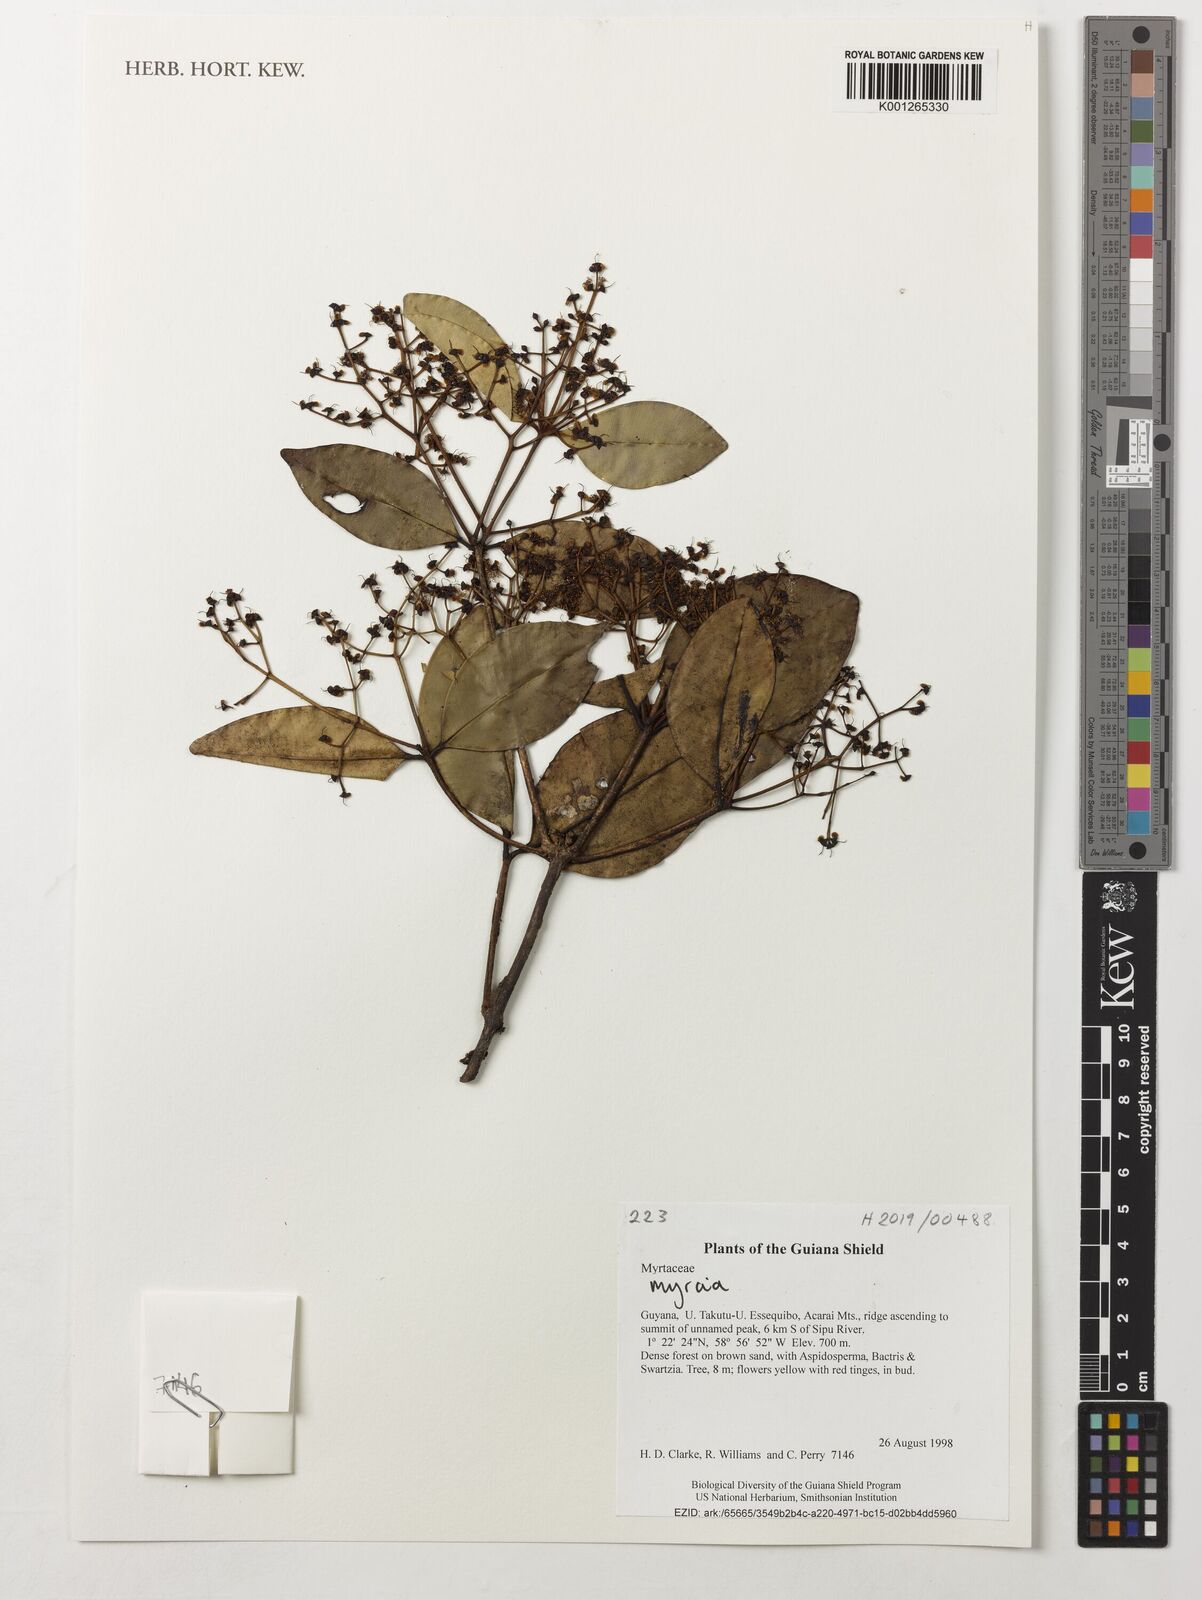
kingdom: Plantae
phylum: Tracheophyta
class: Magnoliopsida
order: Myrtales
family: Myrtaceae
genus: Myrcia
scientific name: Myrcia
